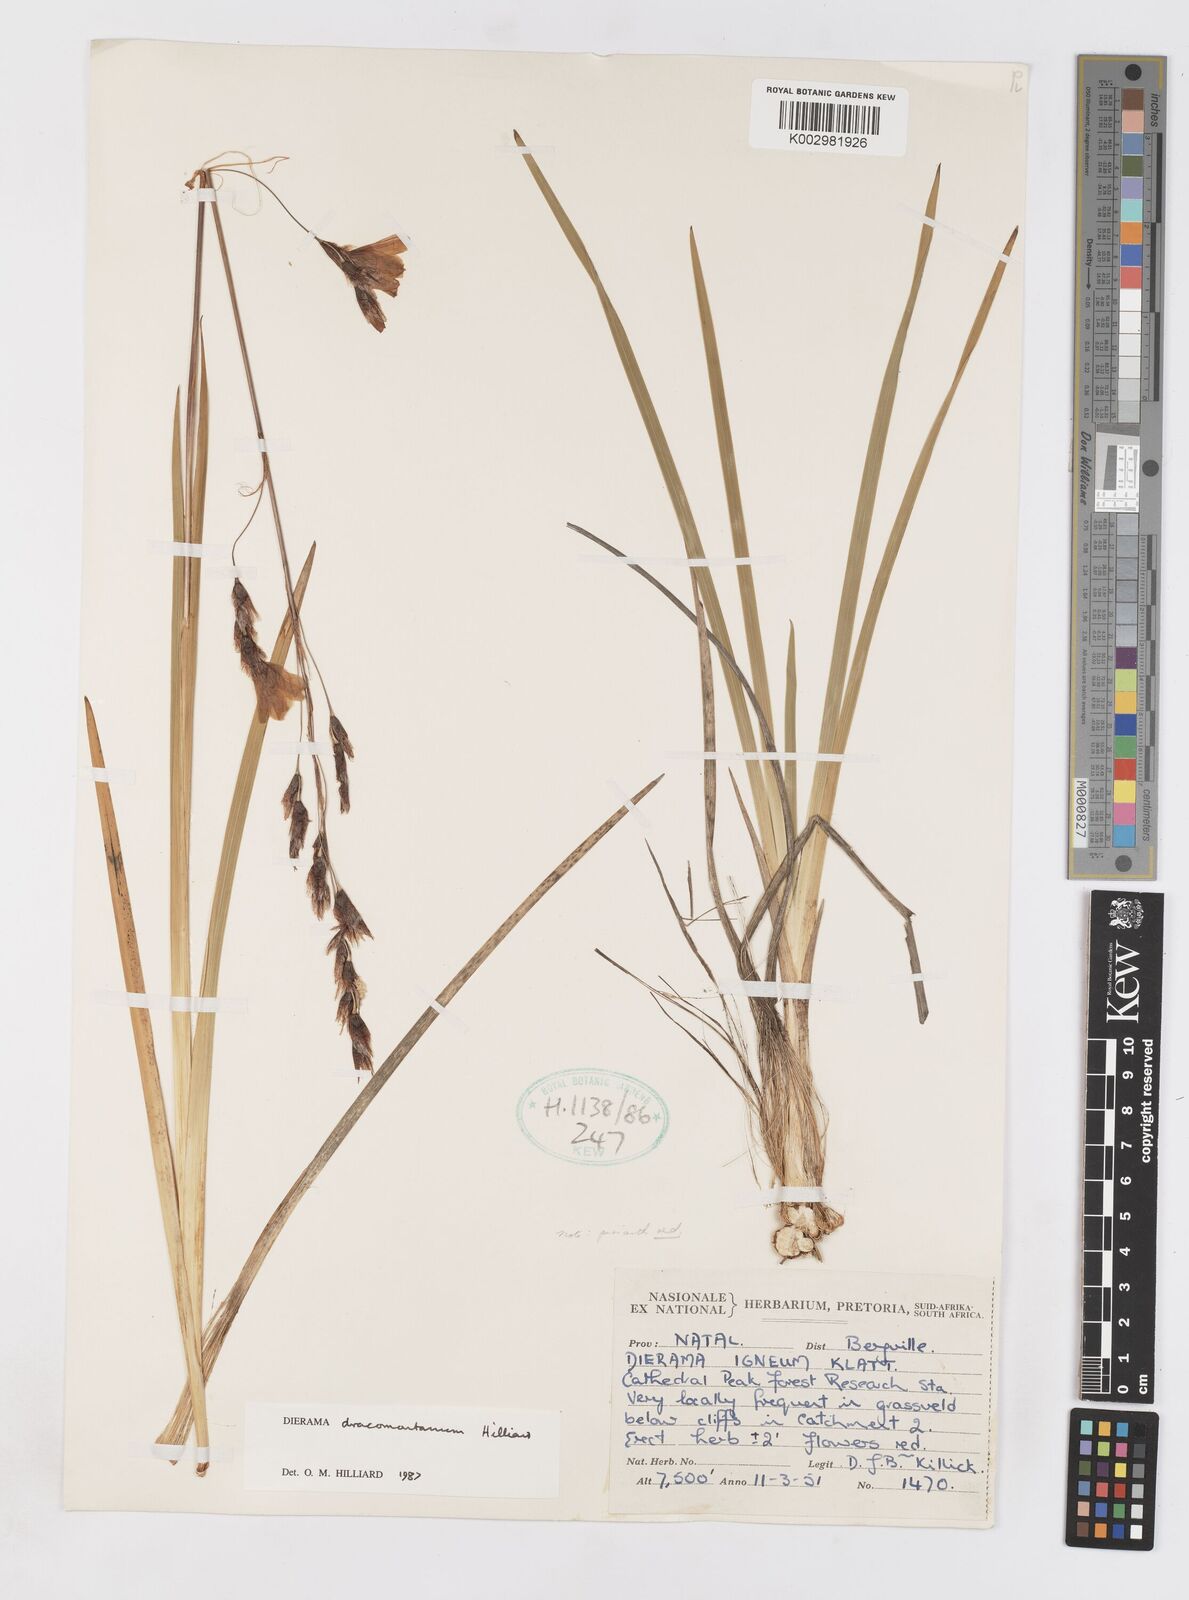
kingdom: Plantae
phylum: Tracheophyta
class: Liliopsida
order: Asparagales
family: Iridaceae
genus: Dierama
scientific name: Dierama dracomontanum
